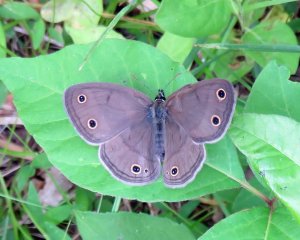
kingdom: Animalia
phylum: Arthropoda
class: Insecta
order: Lepidoptera
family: Nymphalidae
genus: Euptychia
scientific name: Euptychia cymela
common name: Little Wood Satyr
